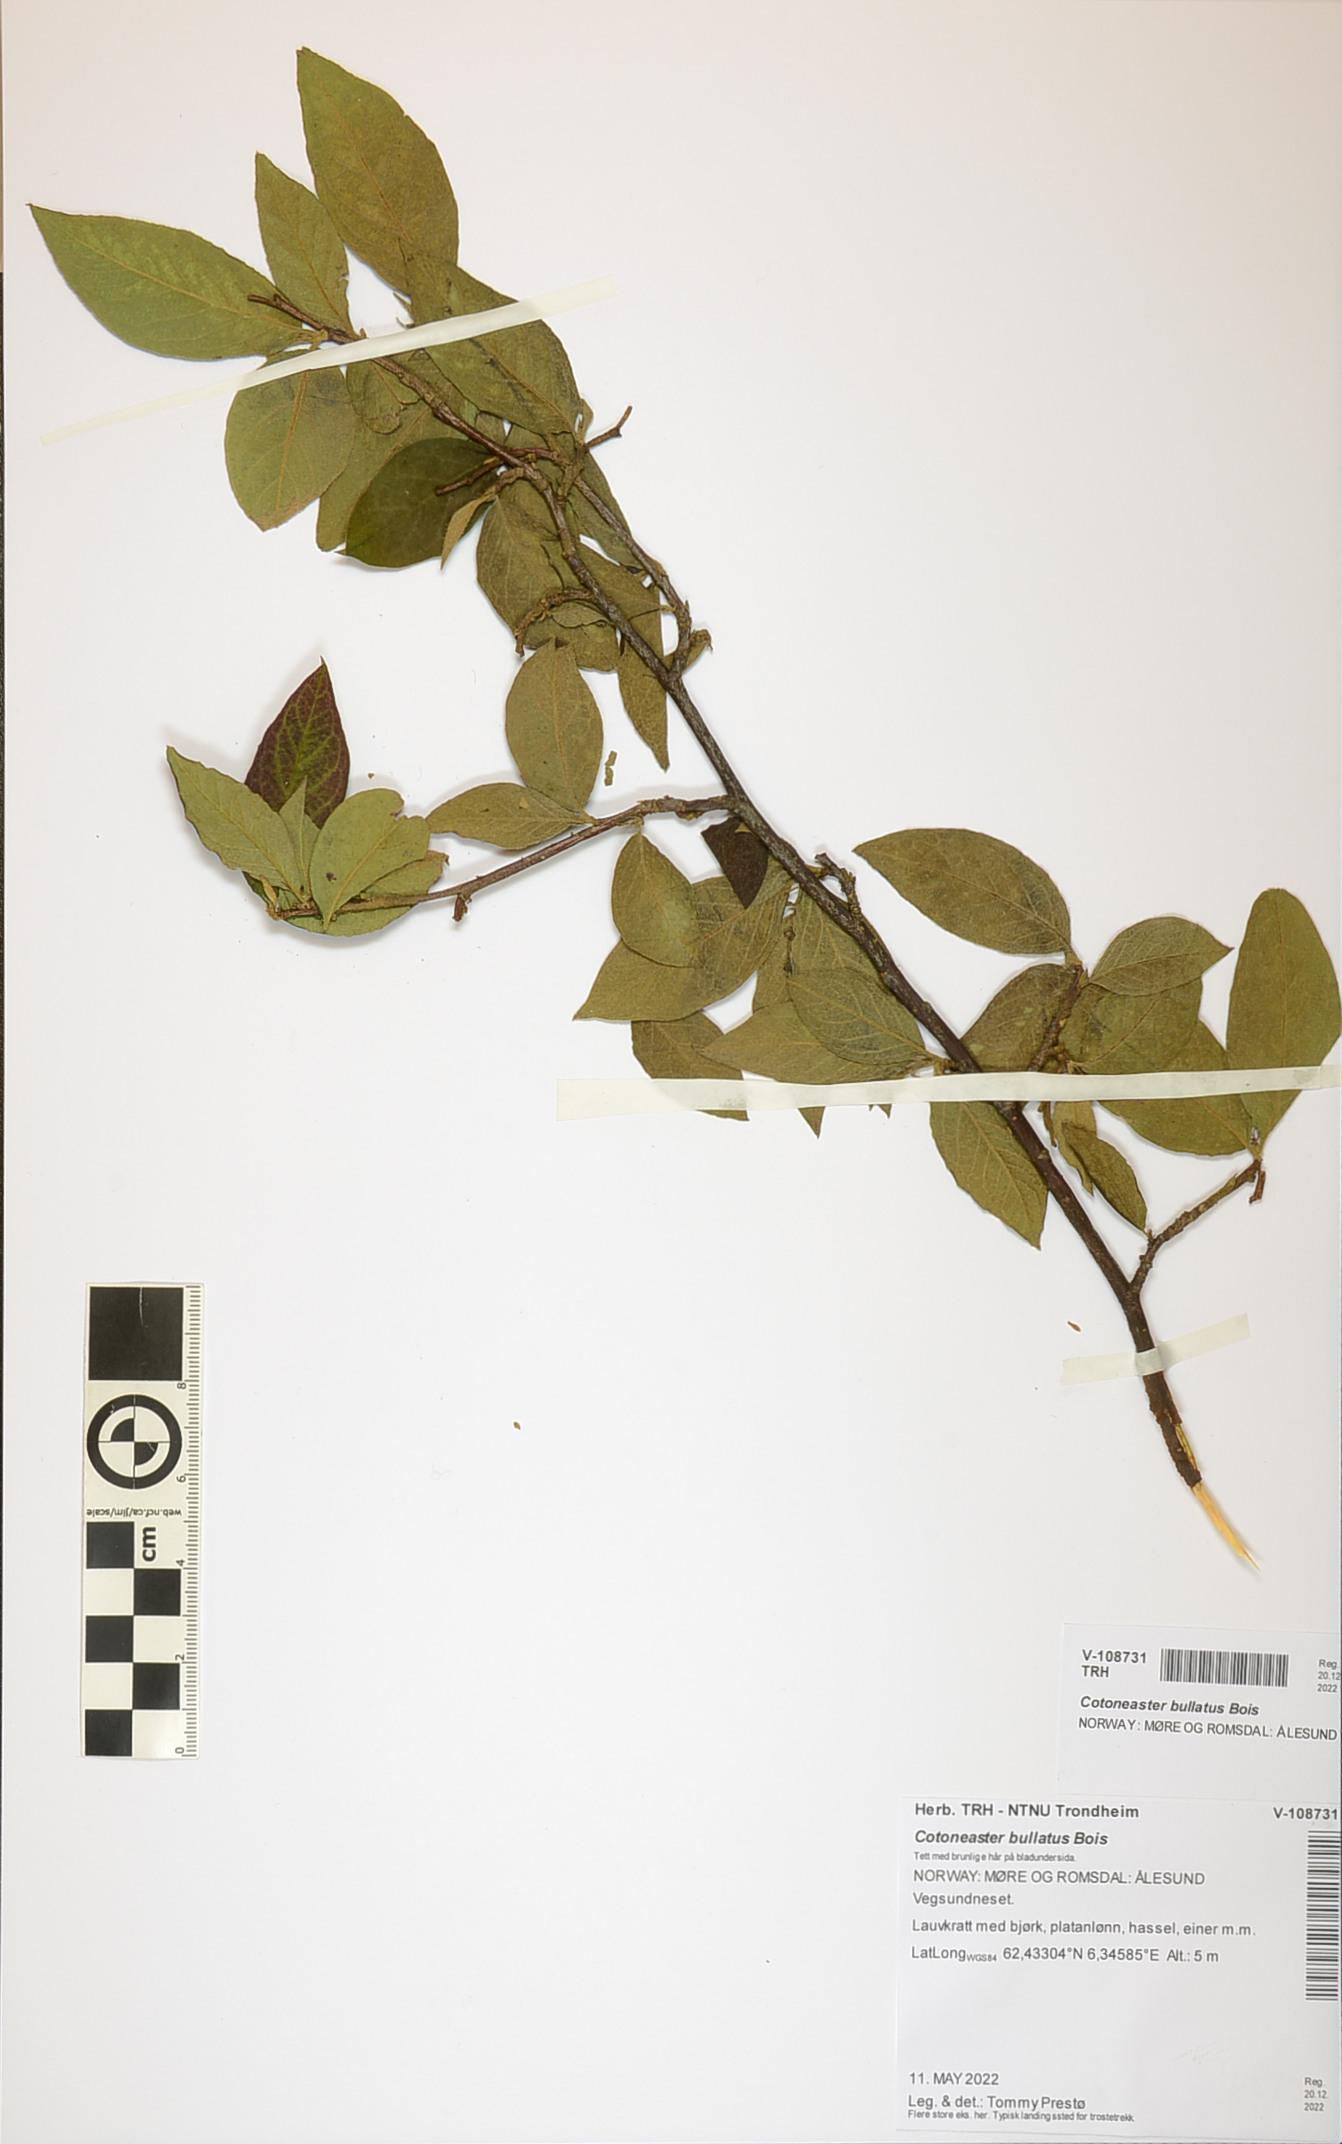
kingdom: Plantae
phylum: Tracheophyta
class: Magnoliopsida
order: Rosales
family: Rosaceae
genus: Cotoneaster
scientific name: Cotoneaster bullatus
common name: Hollyberry cotoneaster
